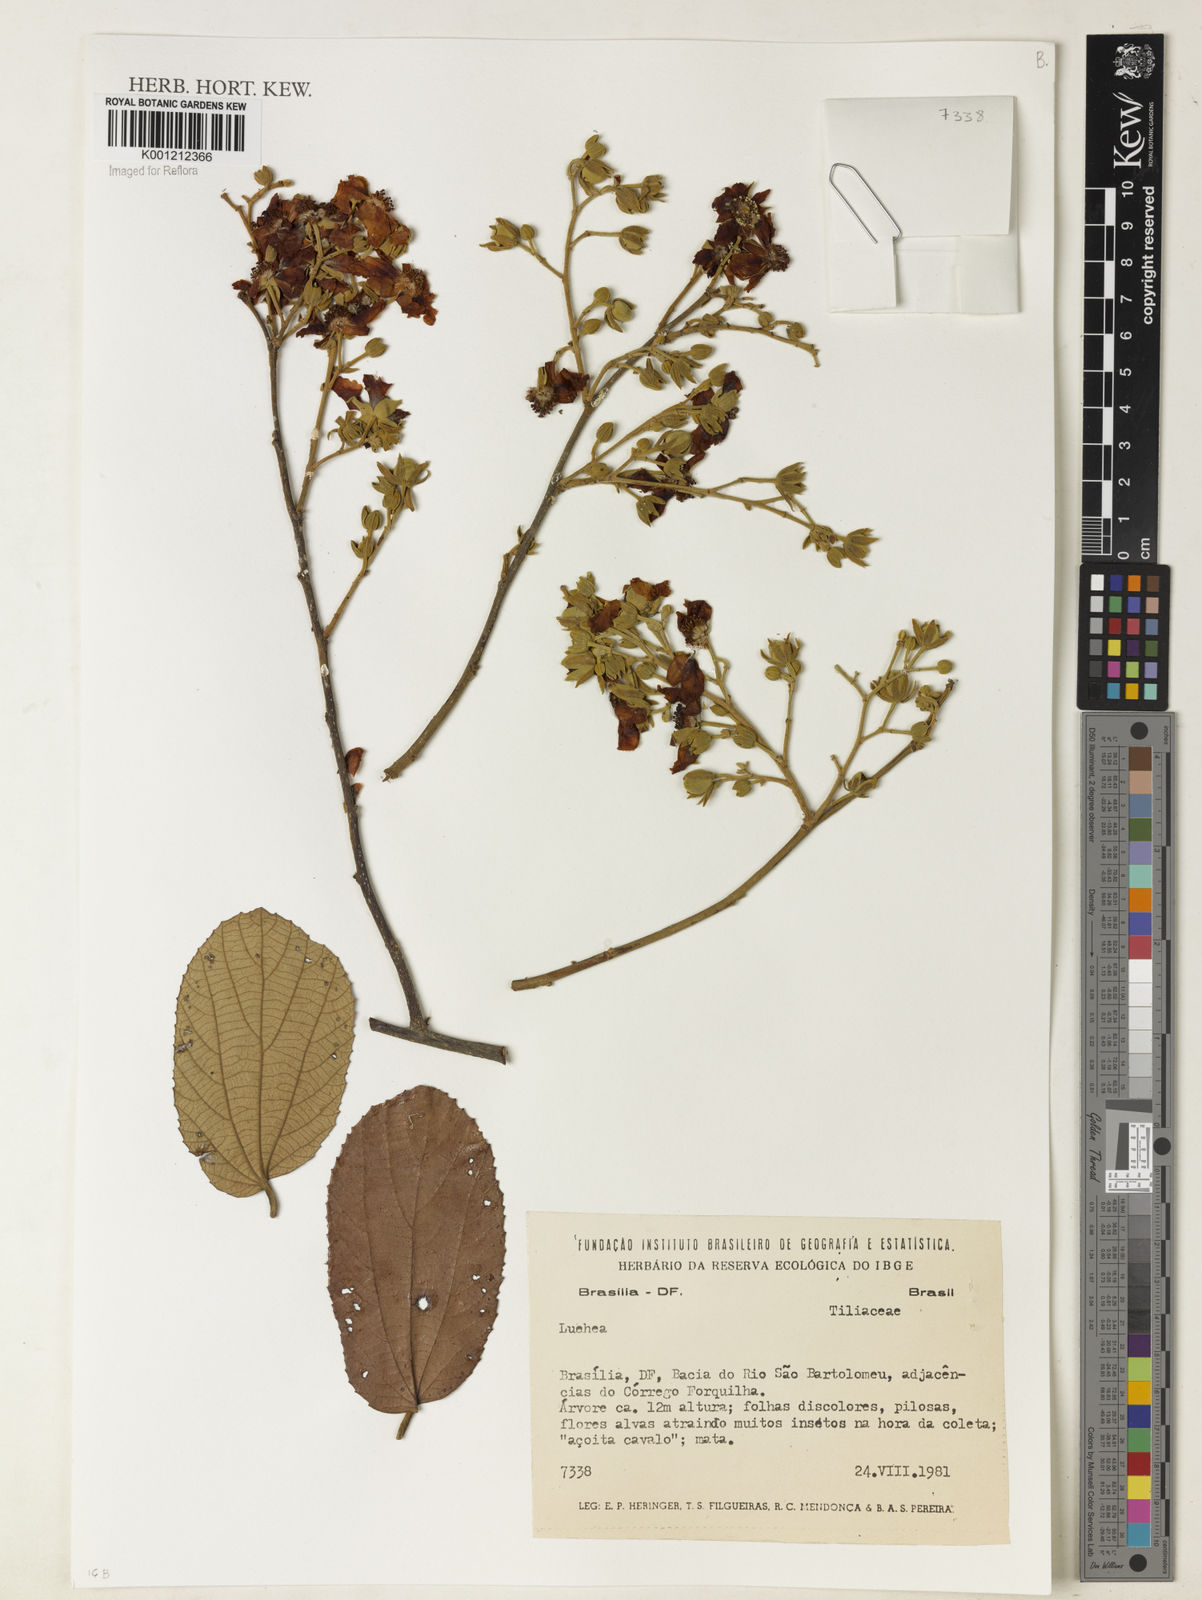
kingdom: Plantae
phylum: Tracheophyta
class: Magnoliopsida
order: Malvales
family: Malvaceae
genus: Luehea
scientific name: Luehea
